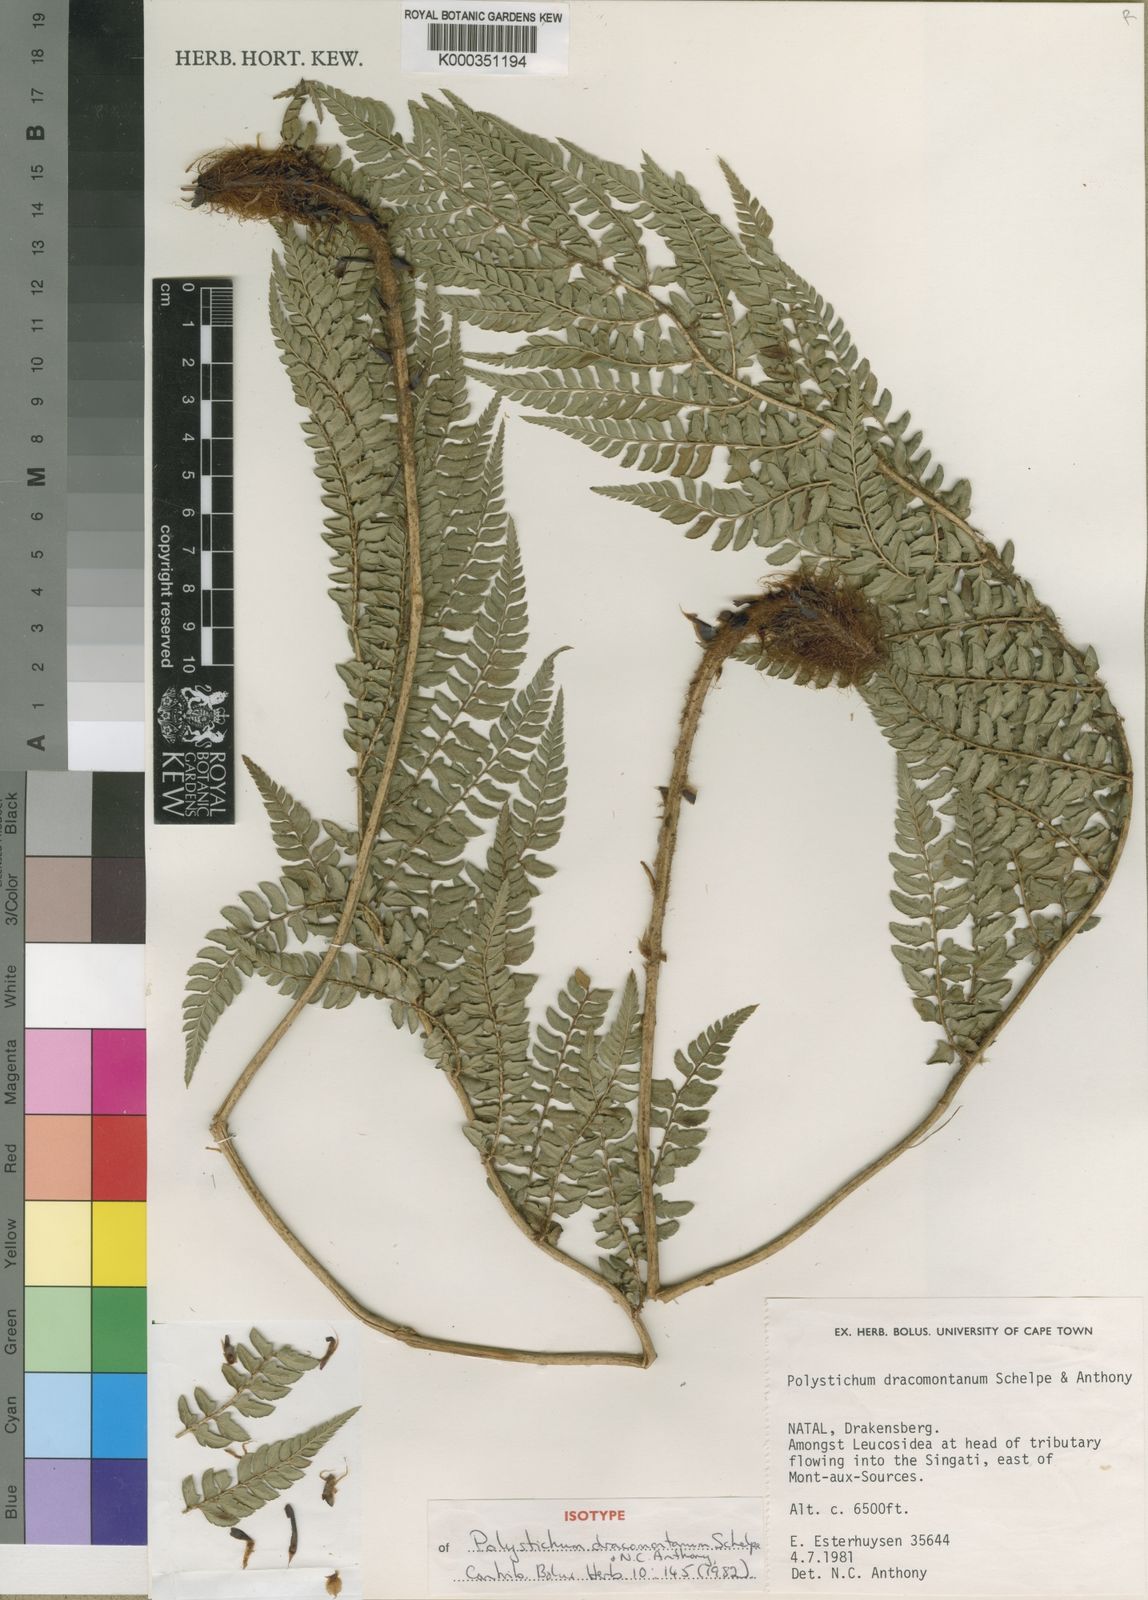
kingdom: Plantae
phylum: Tracheophyta
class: Polypodiopsida
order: Polypodiales
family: Dryopteridaceae
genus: Polystichum
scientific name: Polystichum dracomontanum
